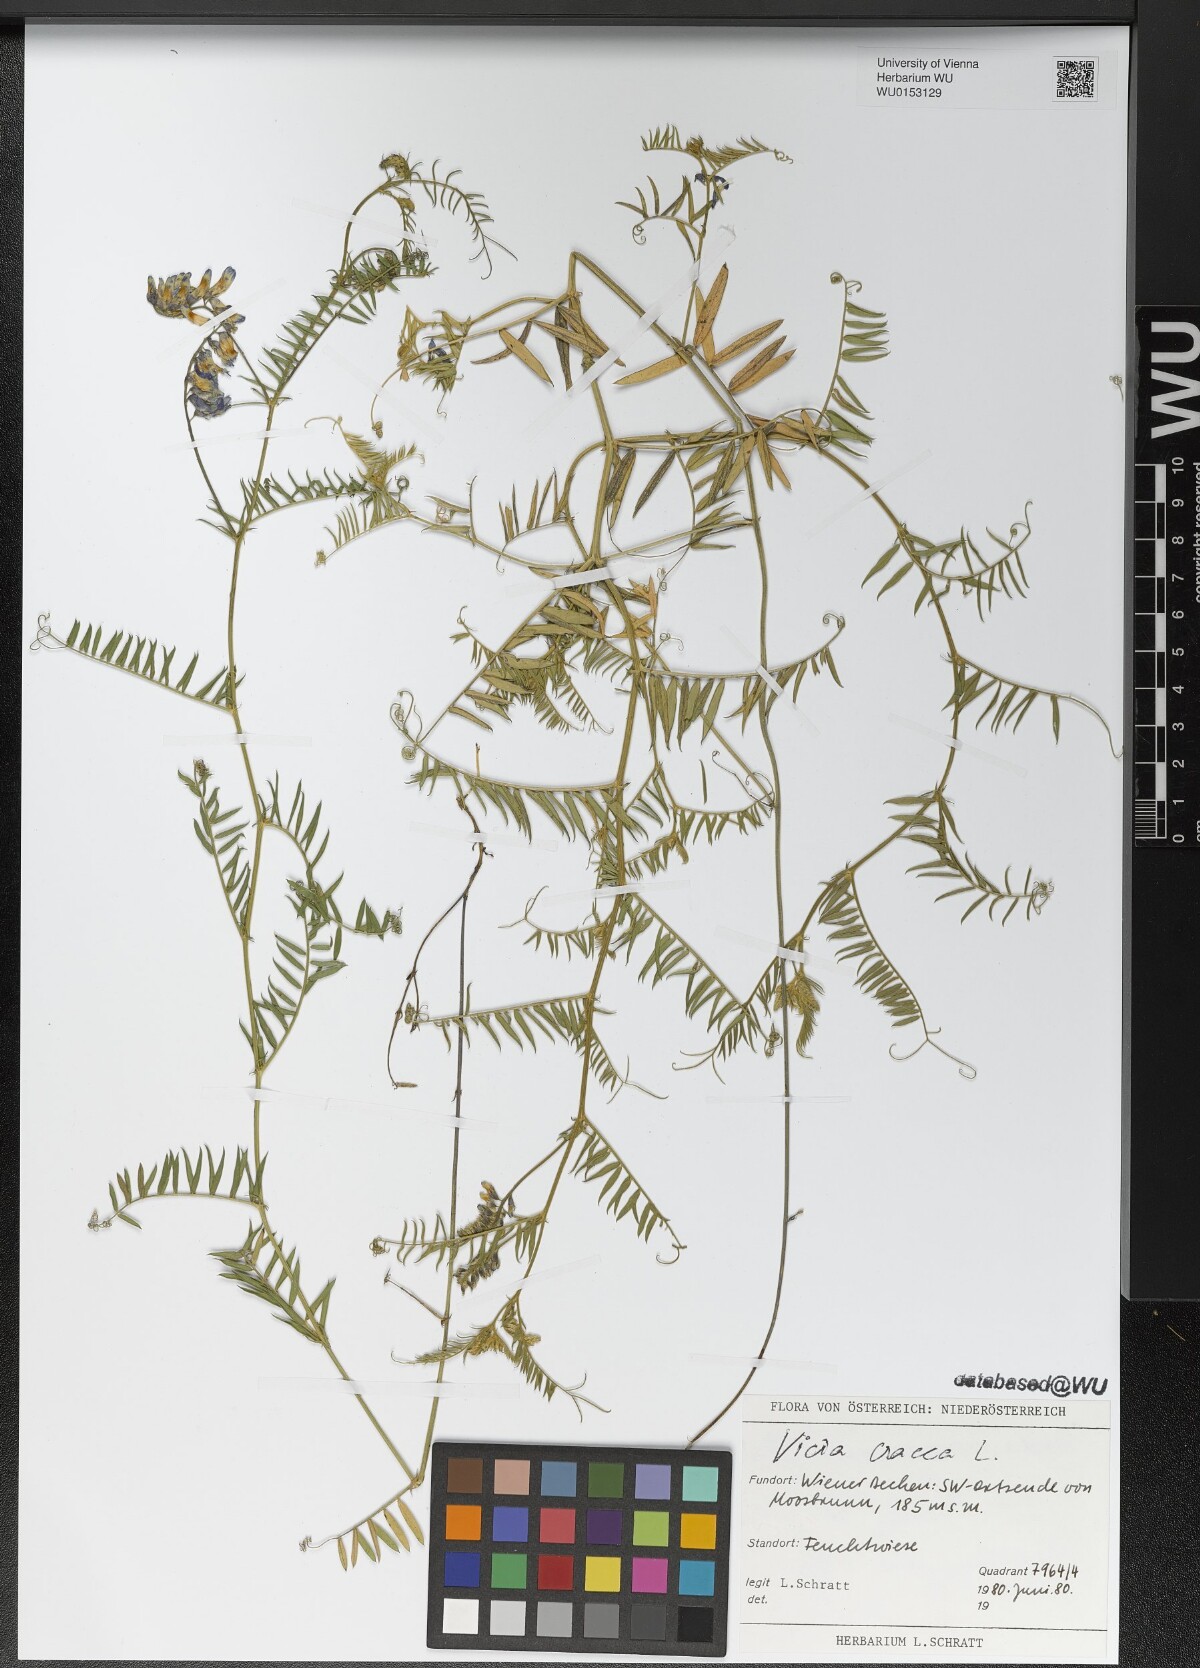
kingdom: Plantae
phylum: Tracheophyta
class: Magnoliopsida
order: Fabales
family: Fabaceae
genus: Vicia
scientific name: Vicia cracca
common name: Bird vetch
